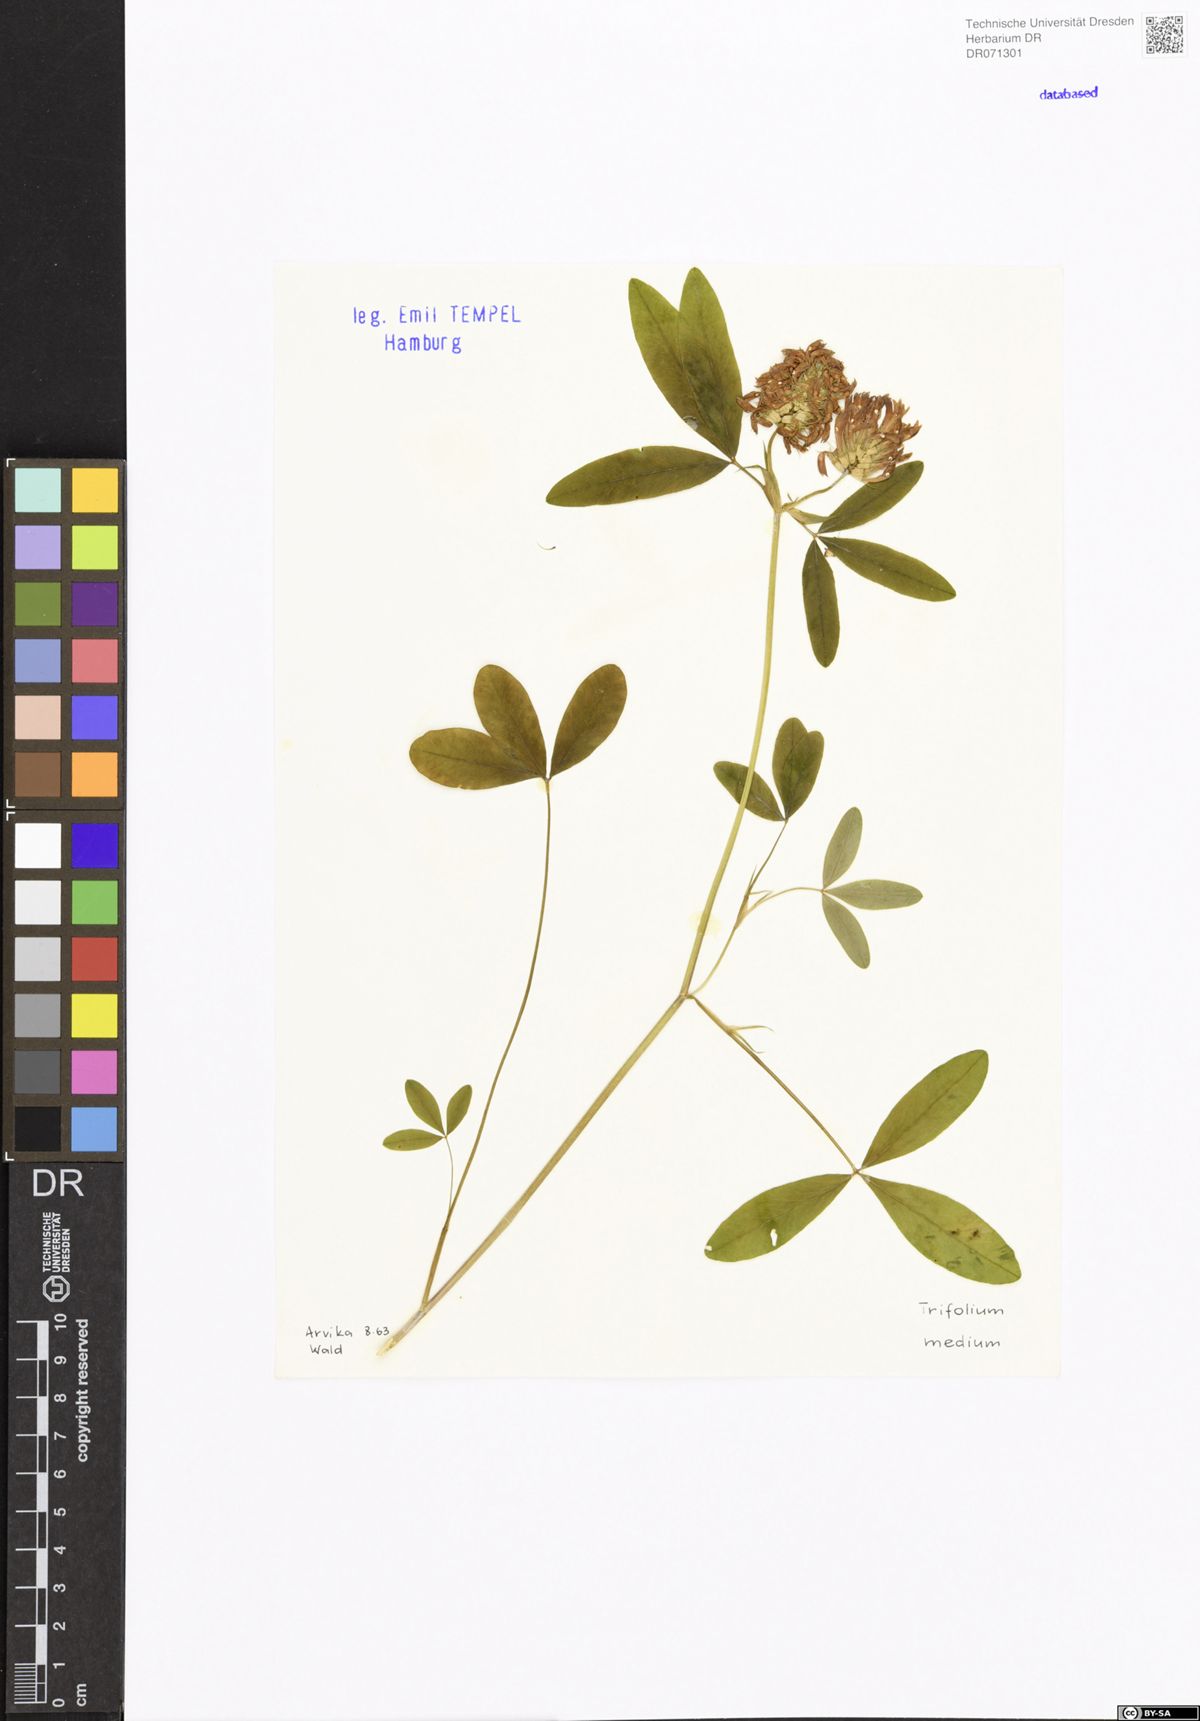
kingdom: Plantae
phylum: Tracheophyta
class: Magnoliopsida
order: Fabales
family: Fabaceae
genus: Trifolium
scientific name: Trifolium medium
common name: Zigzag clover
